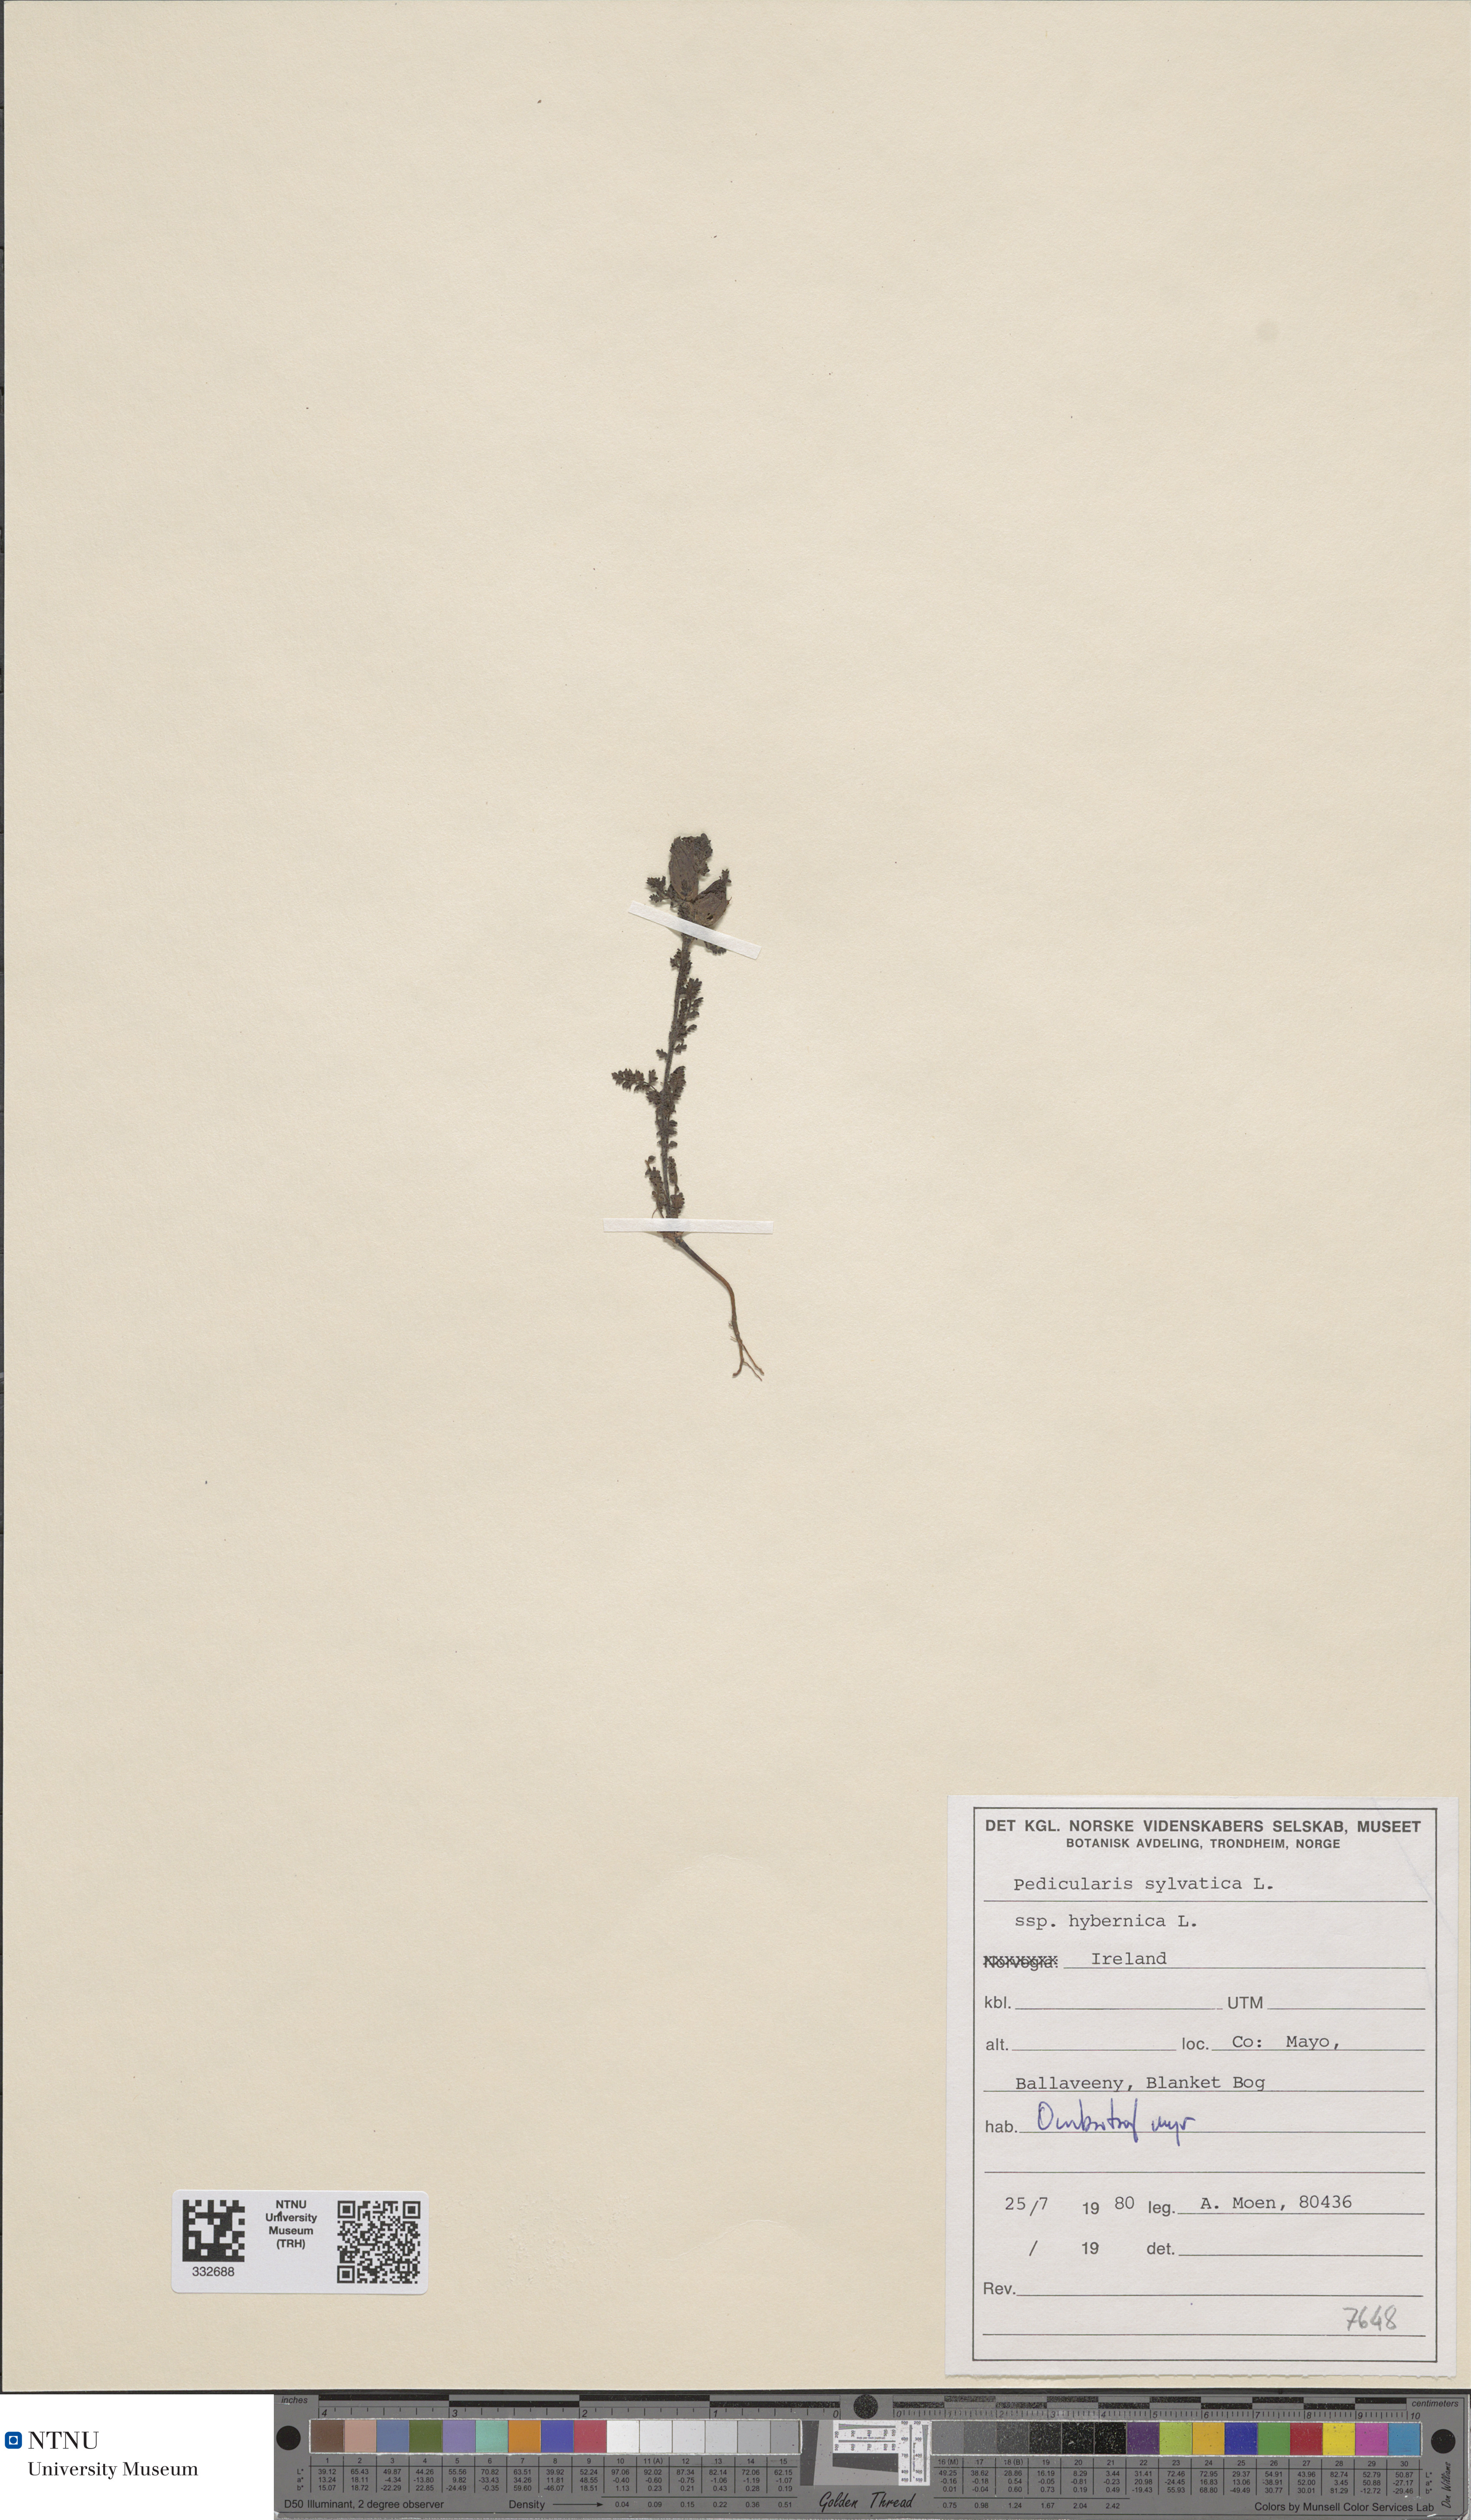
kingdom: Plantae
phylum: Tracheophyta
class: Magnoliopsida
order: Lamiales
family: Orobanchaceae
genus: Pedicularis
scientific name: Pedicularis sylvatica
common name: Lousewort
